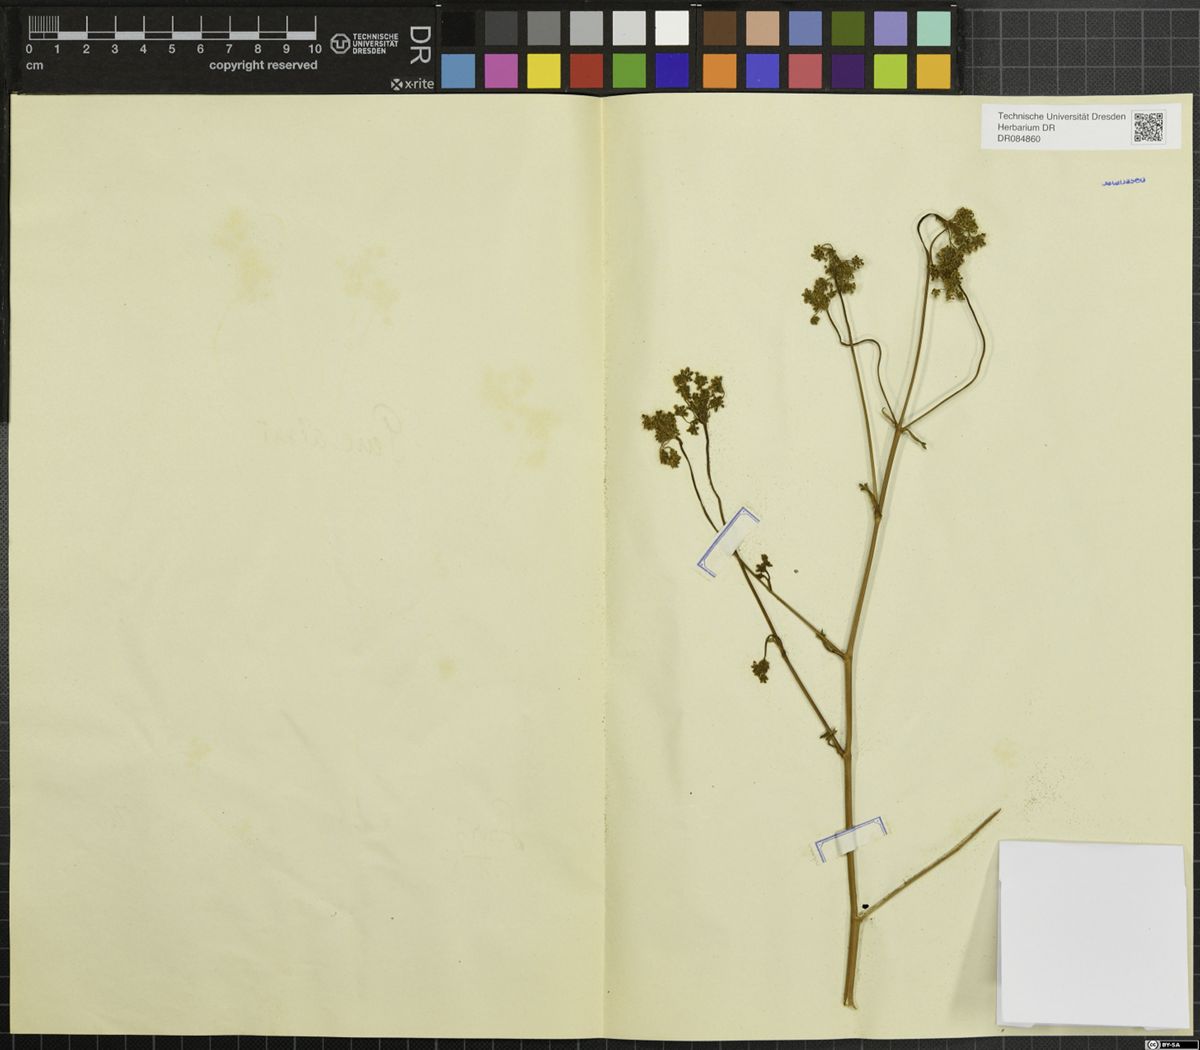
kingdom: Plantae
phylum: Tracheophyta
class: Magnoliopsida
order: Apiales
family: Apiaceae
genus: Xanthoselinum
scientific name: Xanthoselinum alsaticum
